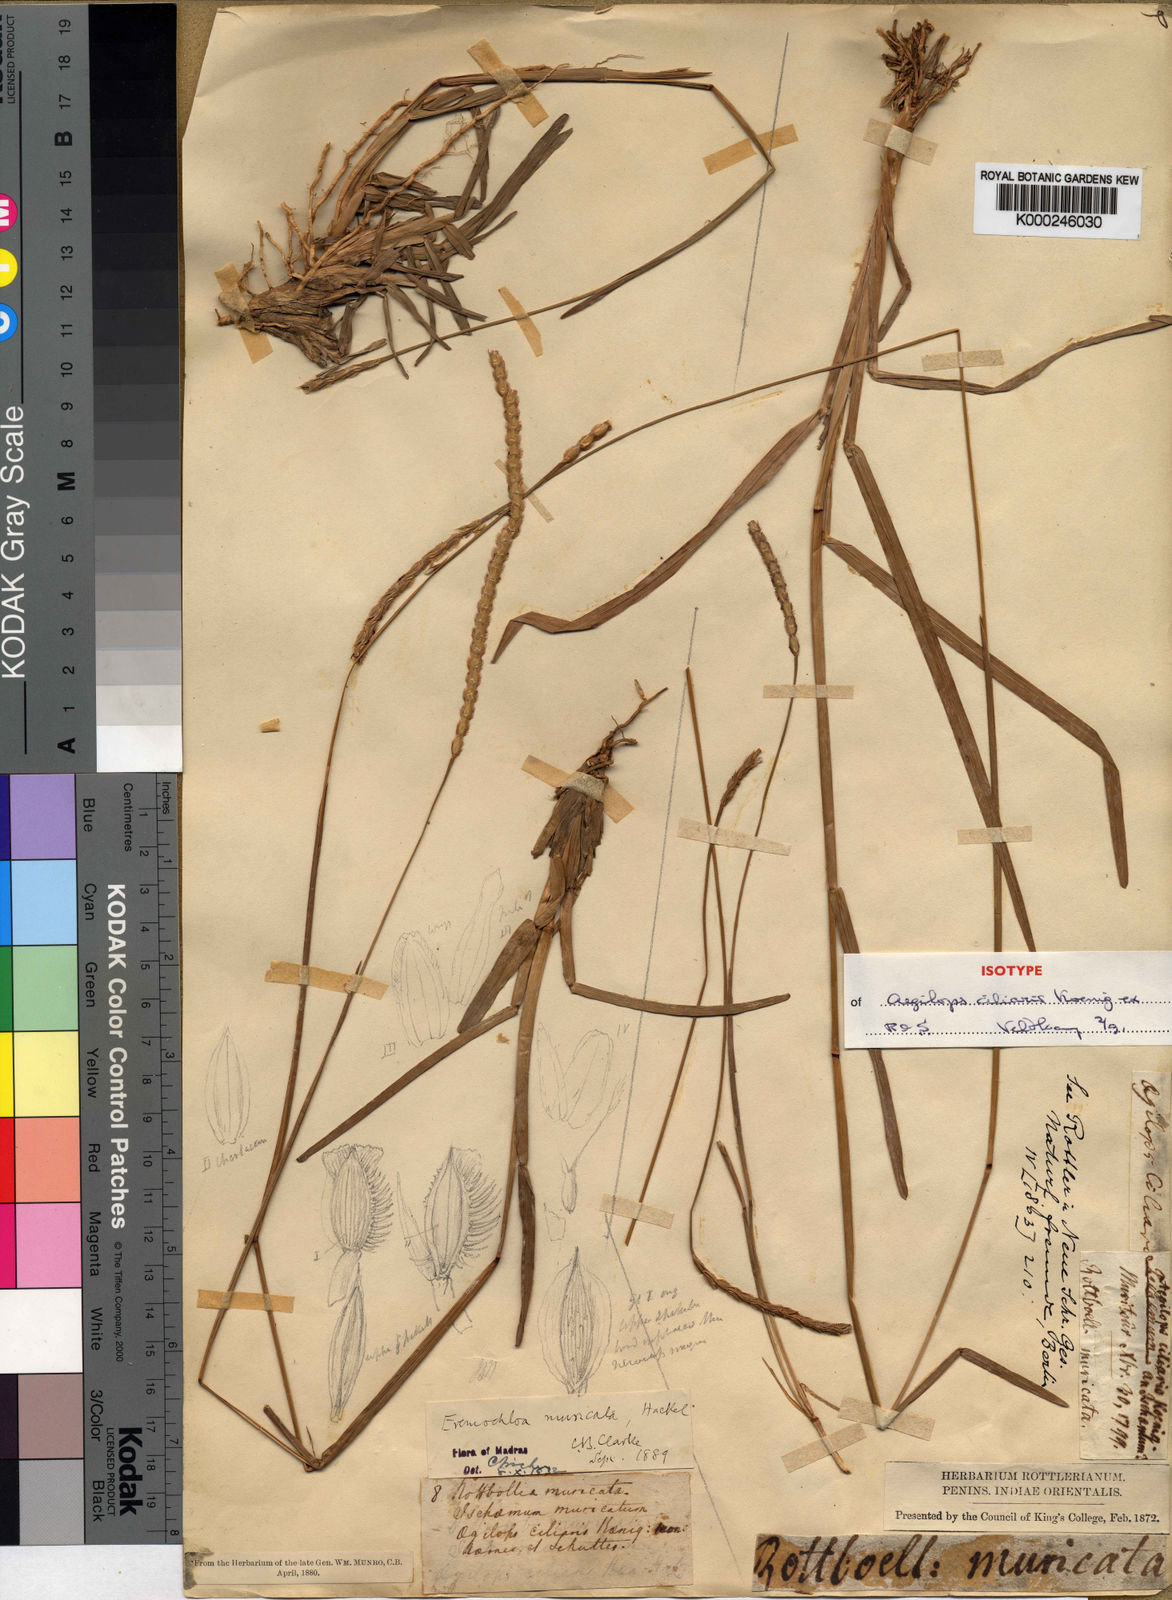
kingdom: Plantae
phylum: Tracheophyta
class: Liliopsida
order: Poales
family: Poaceae
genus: Eremochloa
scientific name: Eremochloa pectinata
